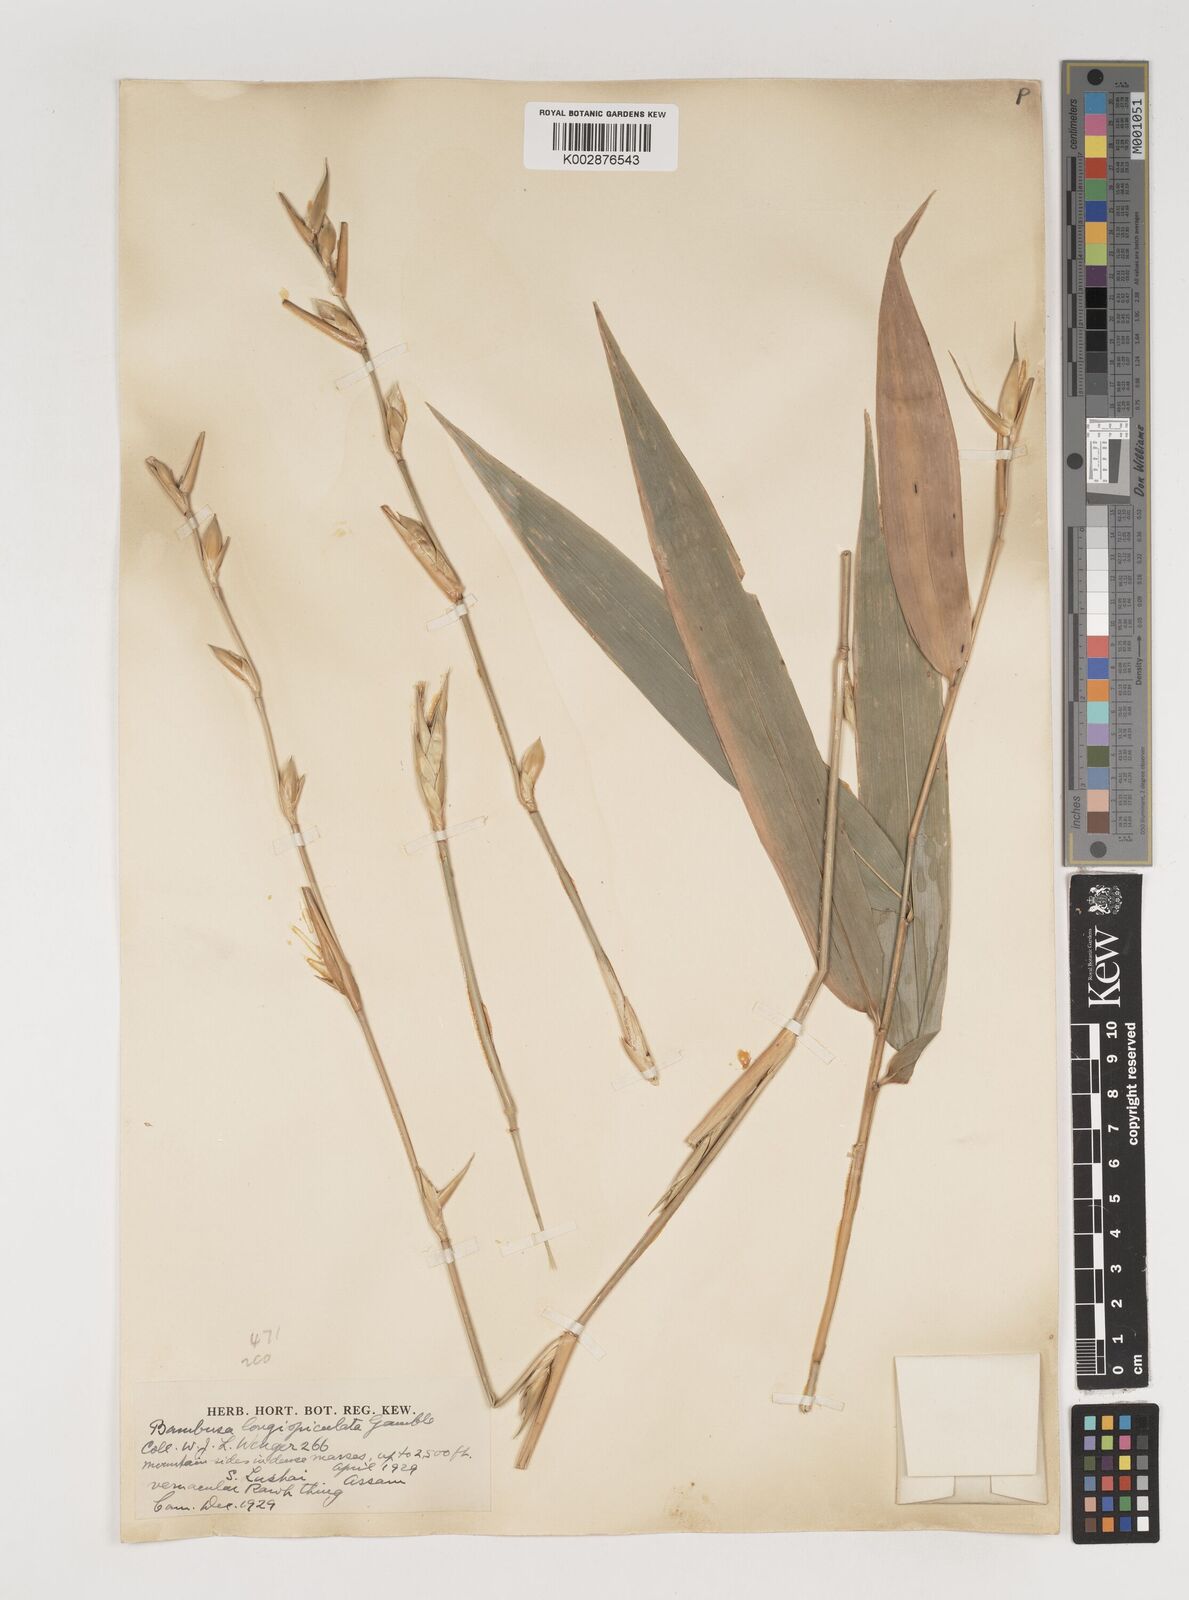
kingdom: Plantae
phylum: Tracheophyta
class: Liliopsida
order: Poales
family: Poaceae
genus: Bambusa
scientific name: Bambusa longispiculata
